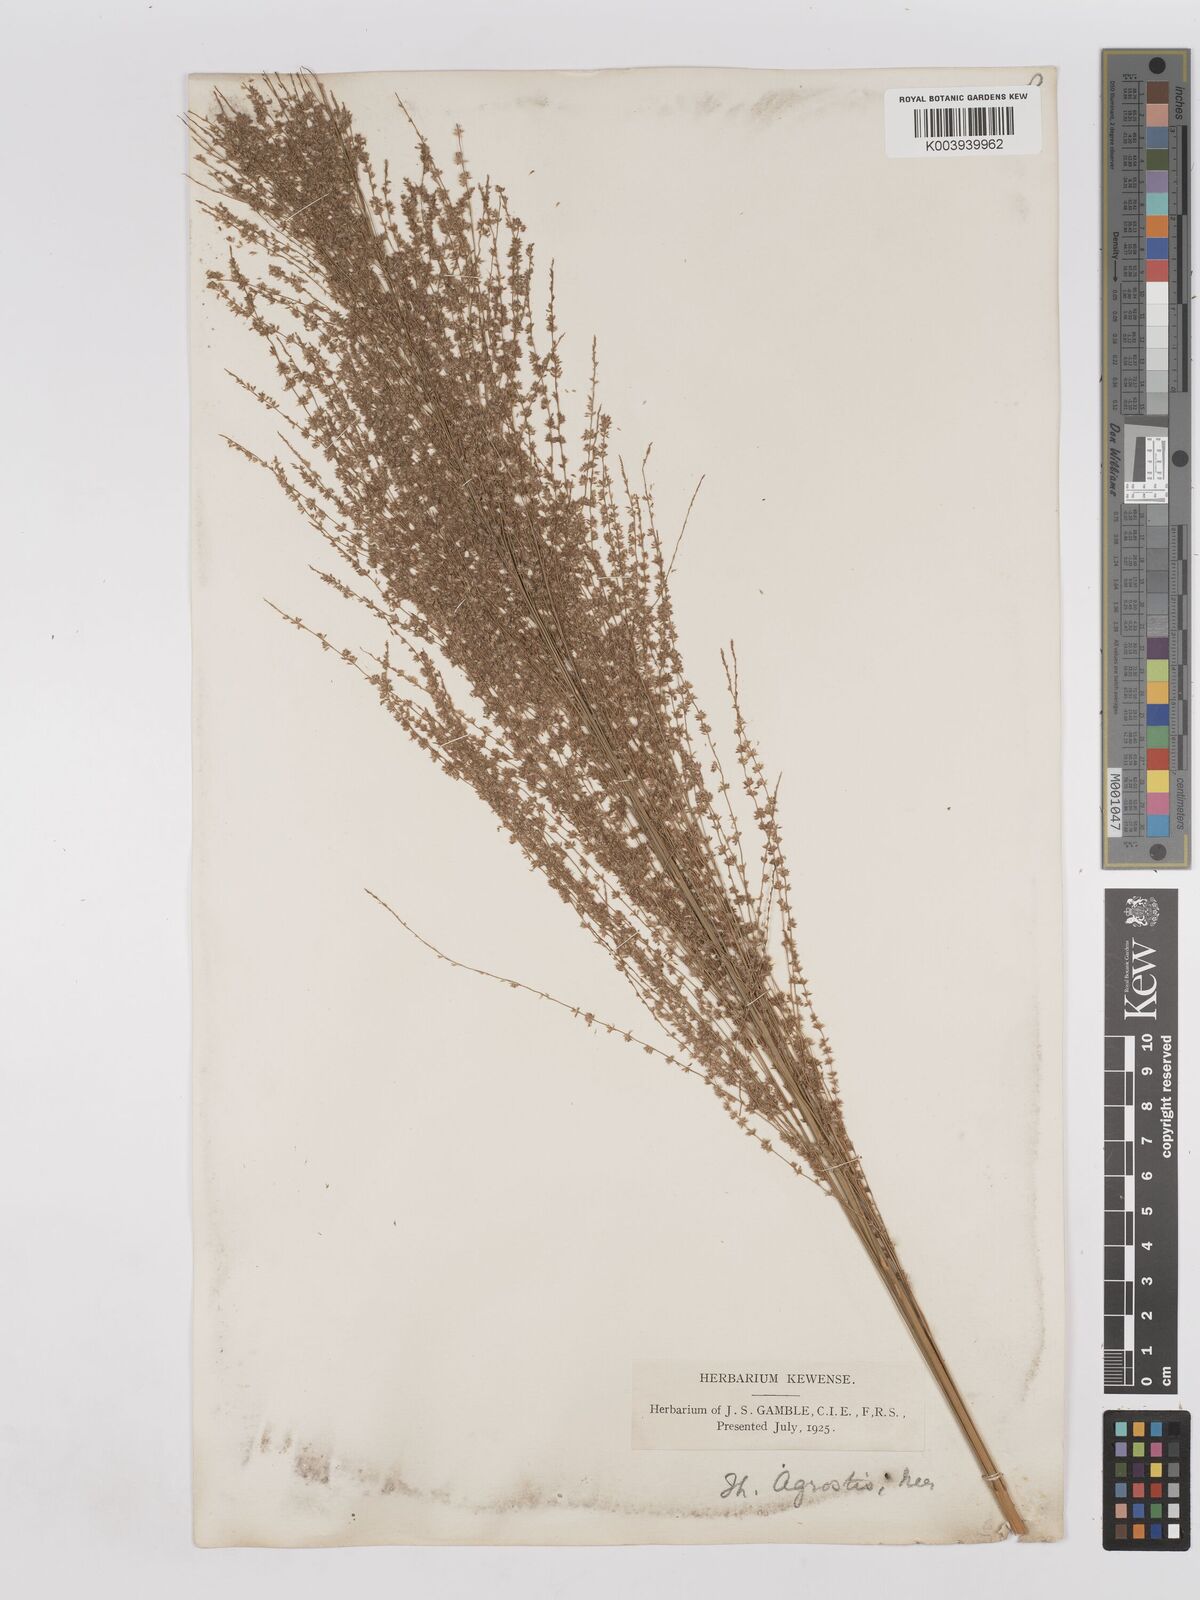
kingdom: Plantae
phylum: Tracheophyta
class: Liliopsida
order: Poales
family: Poaceae
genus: Thysanolaena
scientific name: Thysanolaena latifolia
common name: Tiger grass
